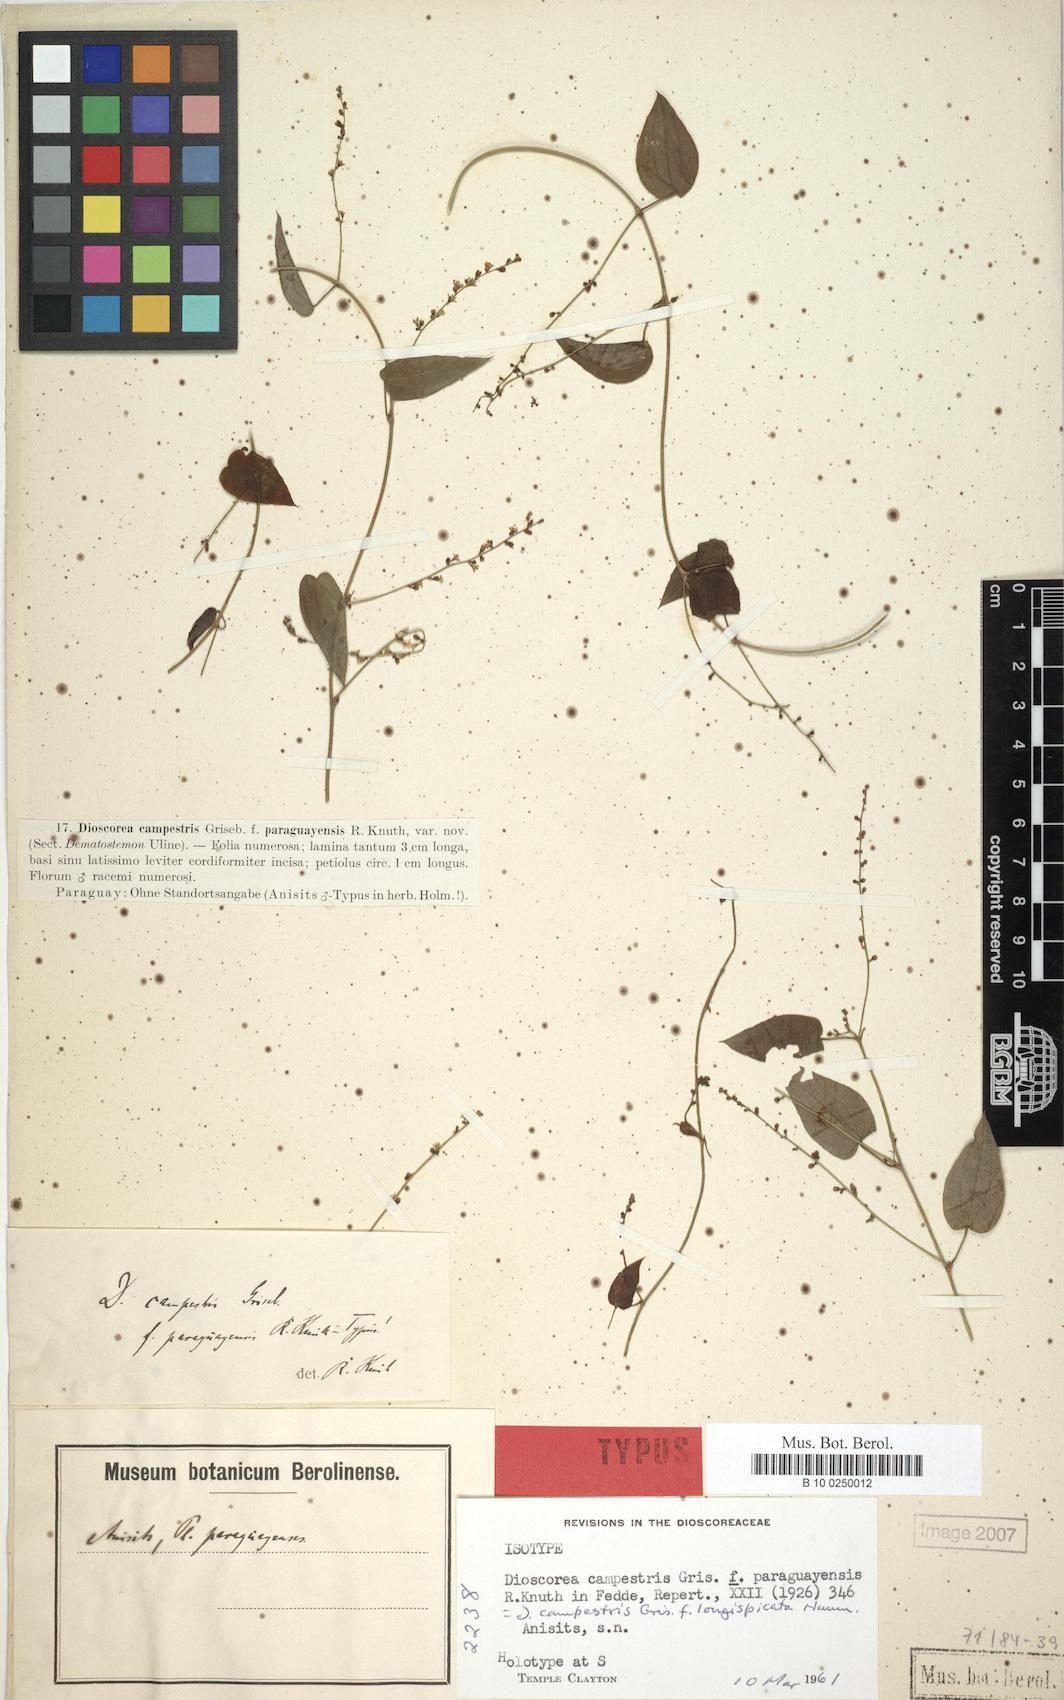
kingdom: Plantae
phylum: Tracheophyta
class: Liliopsida
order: Dioscoreales
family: Dioscoreaceae
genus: Dioscorea
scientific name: Dioscorea campestris
